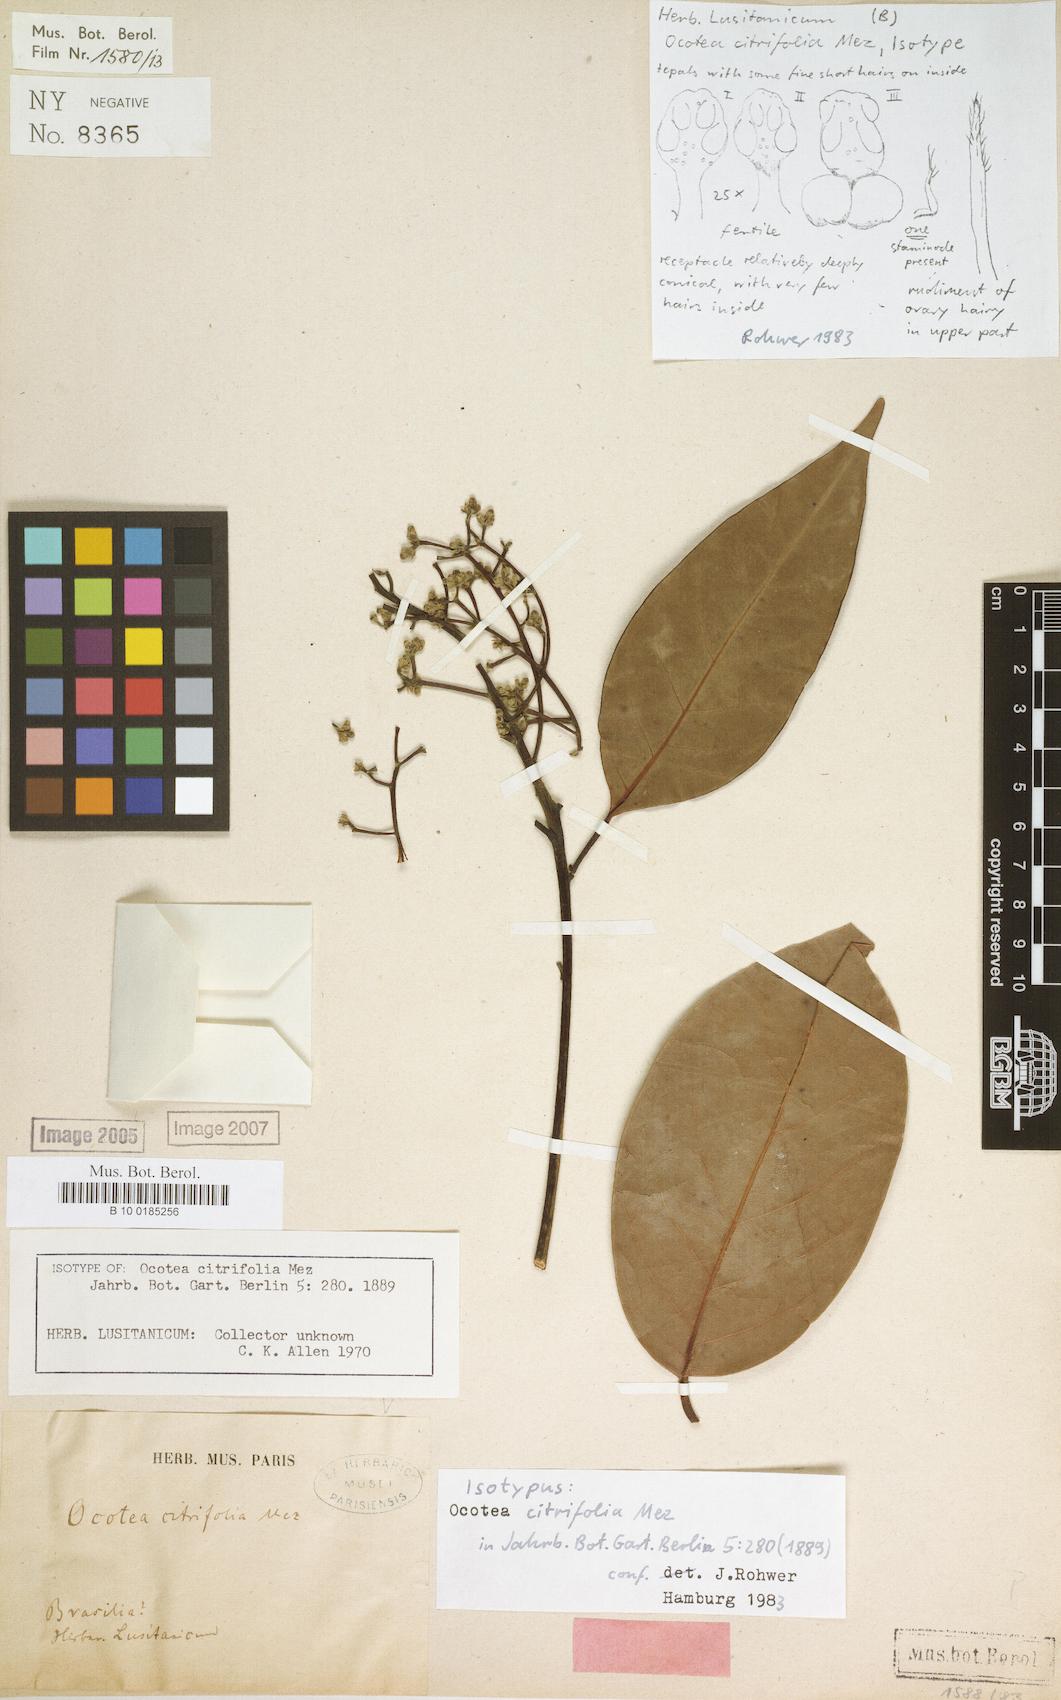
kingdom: Plantae
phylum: Tracheophyta
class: Magnoliopsida
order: Laurales
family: Lauraceae
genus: Ocotea
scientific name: Ocotea splendens
